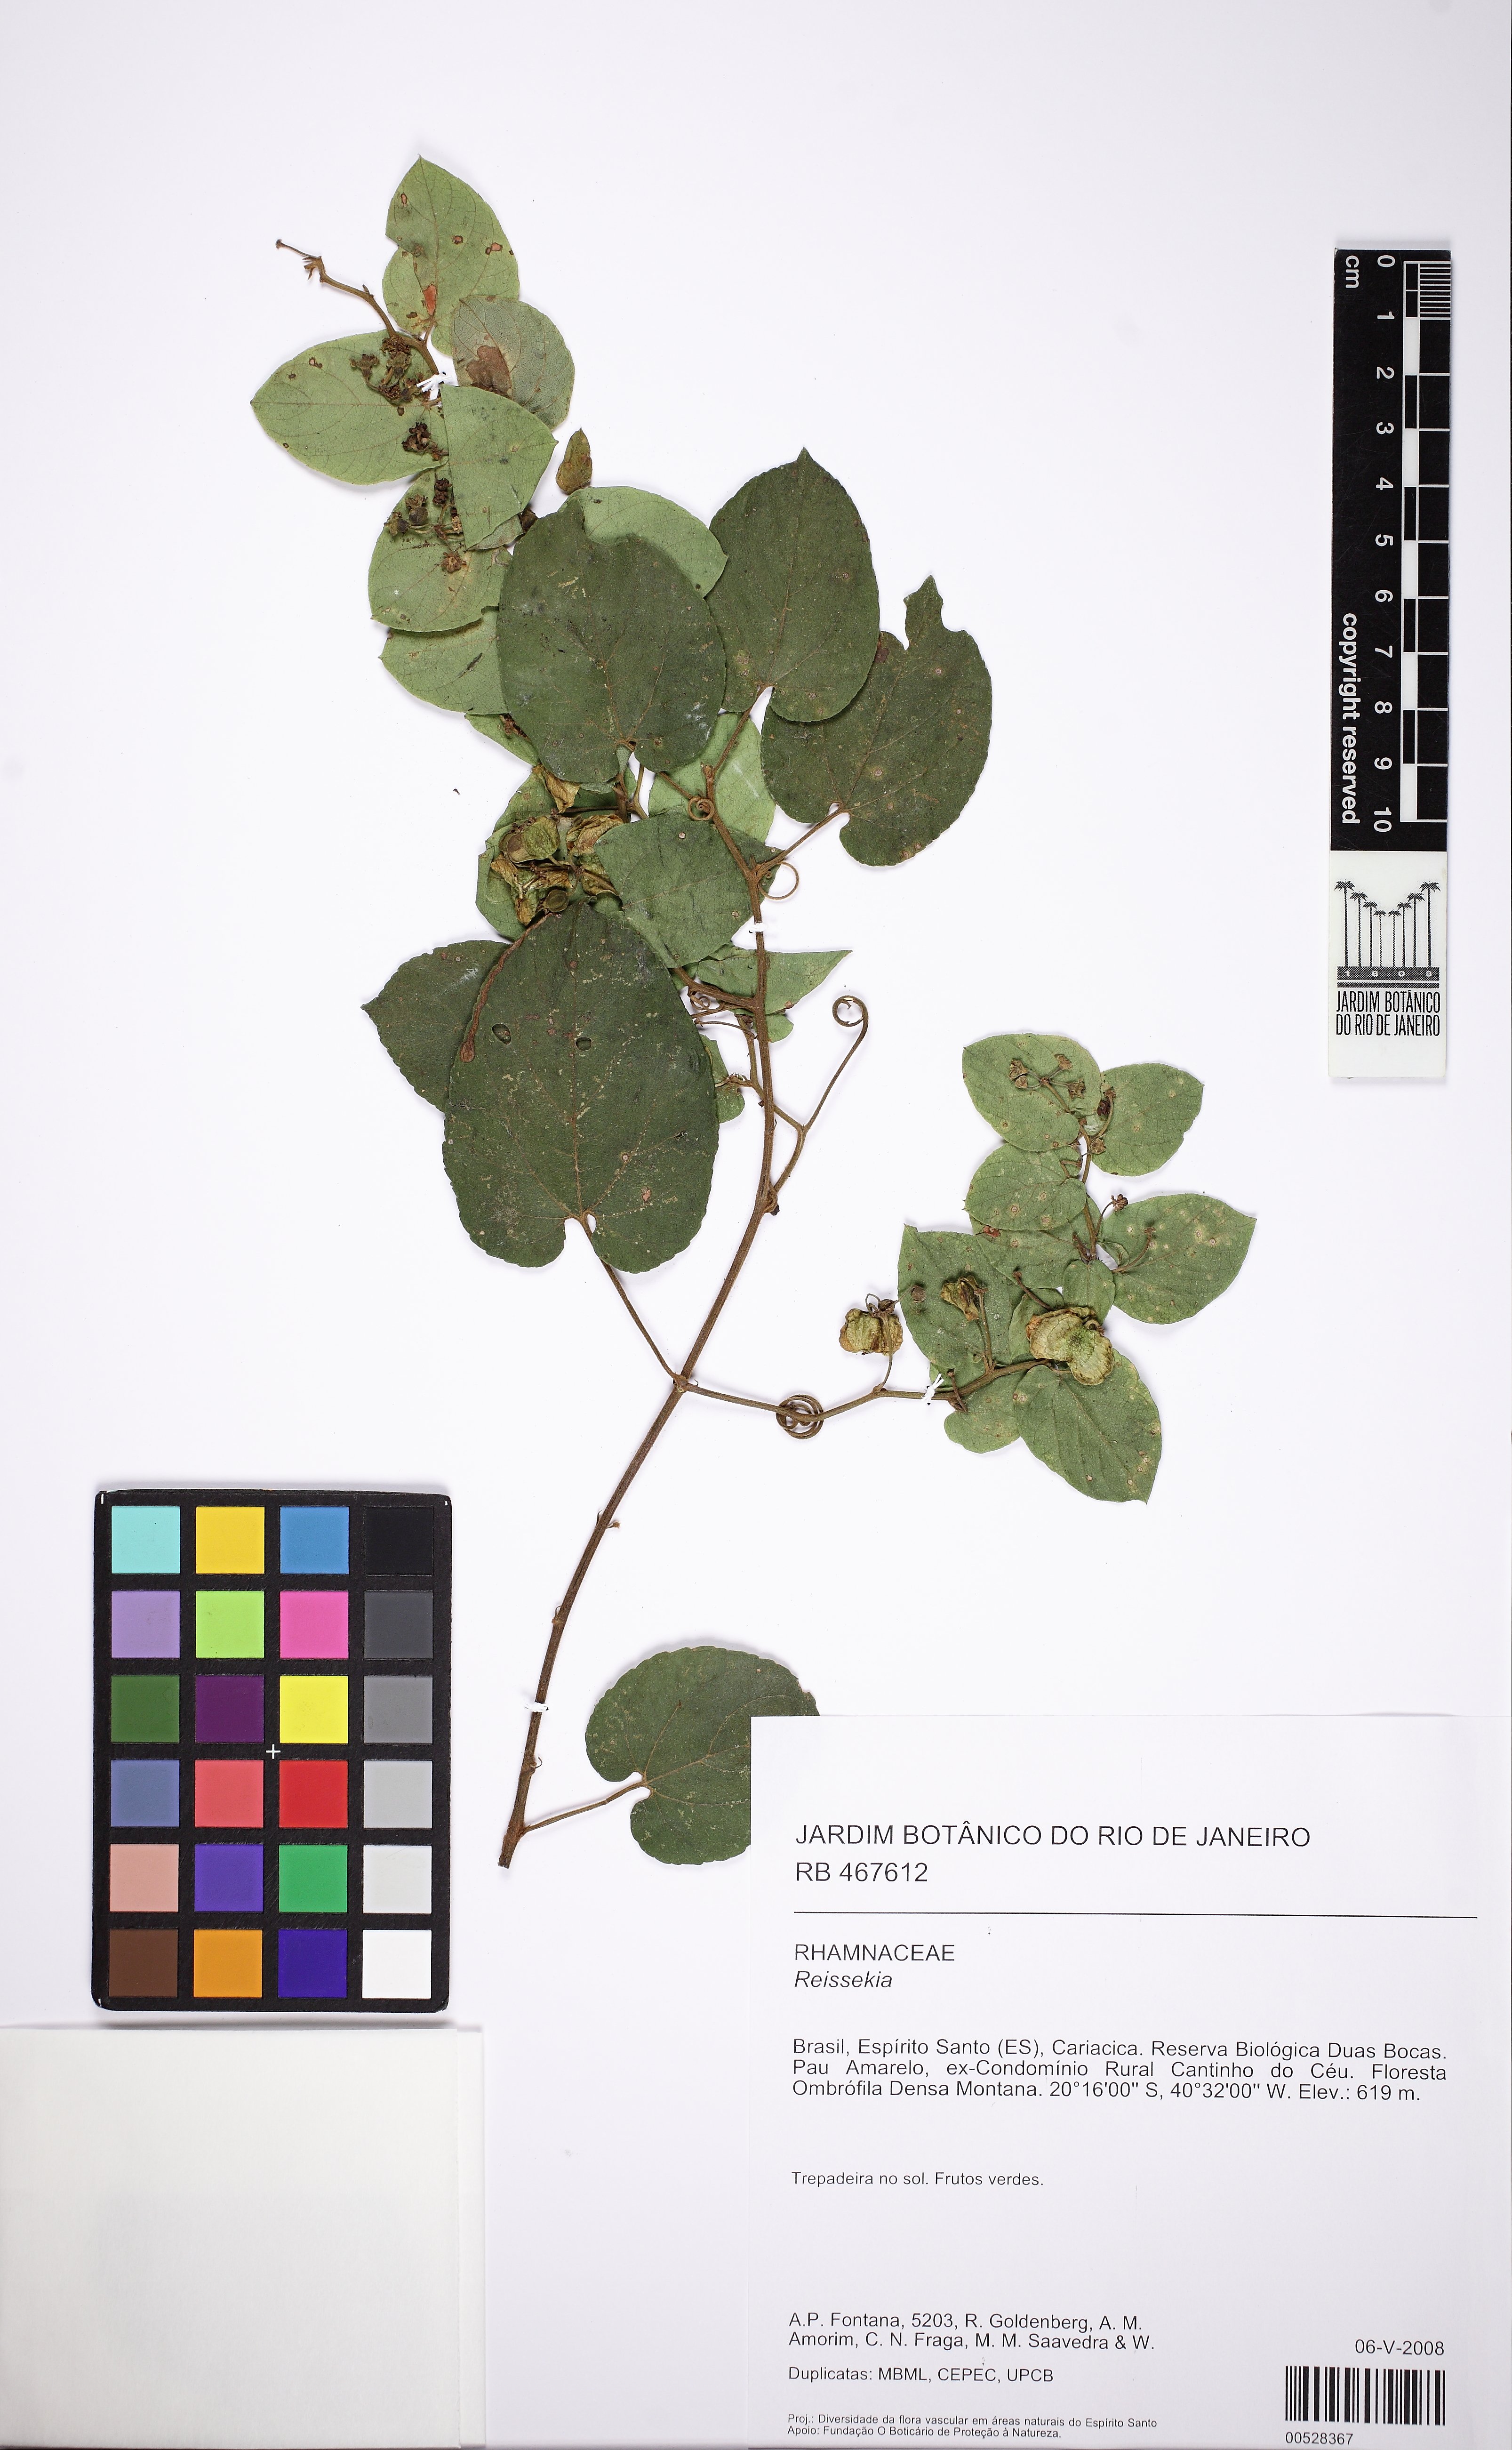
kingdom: Plantae
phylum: Tracheophyta
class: Magnoliopsida
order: Rosales
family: Rhamnaceae
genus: Reissekia
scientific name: Reissekia
